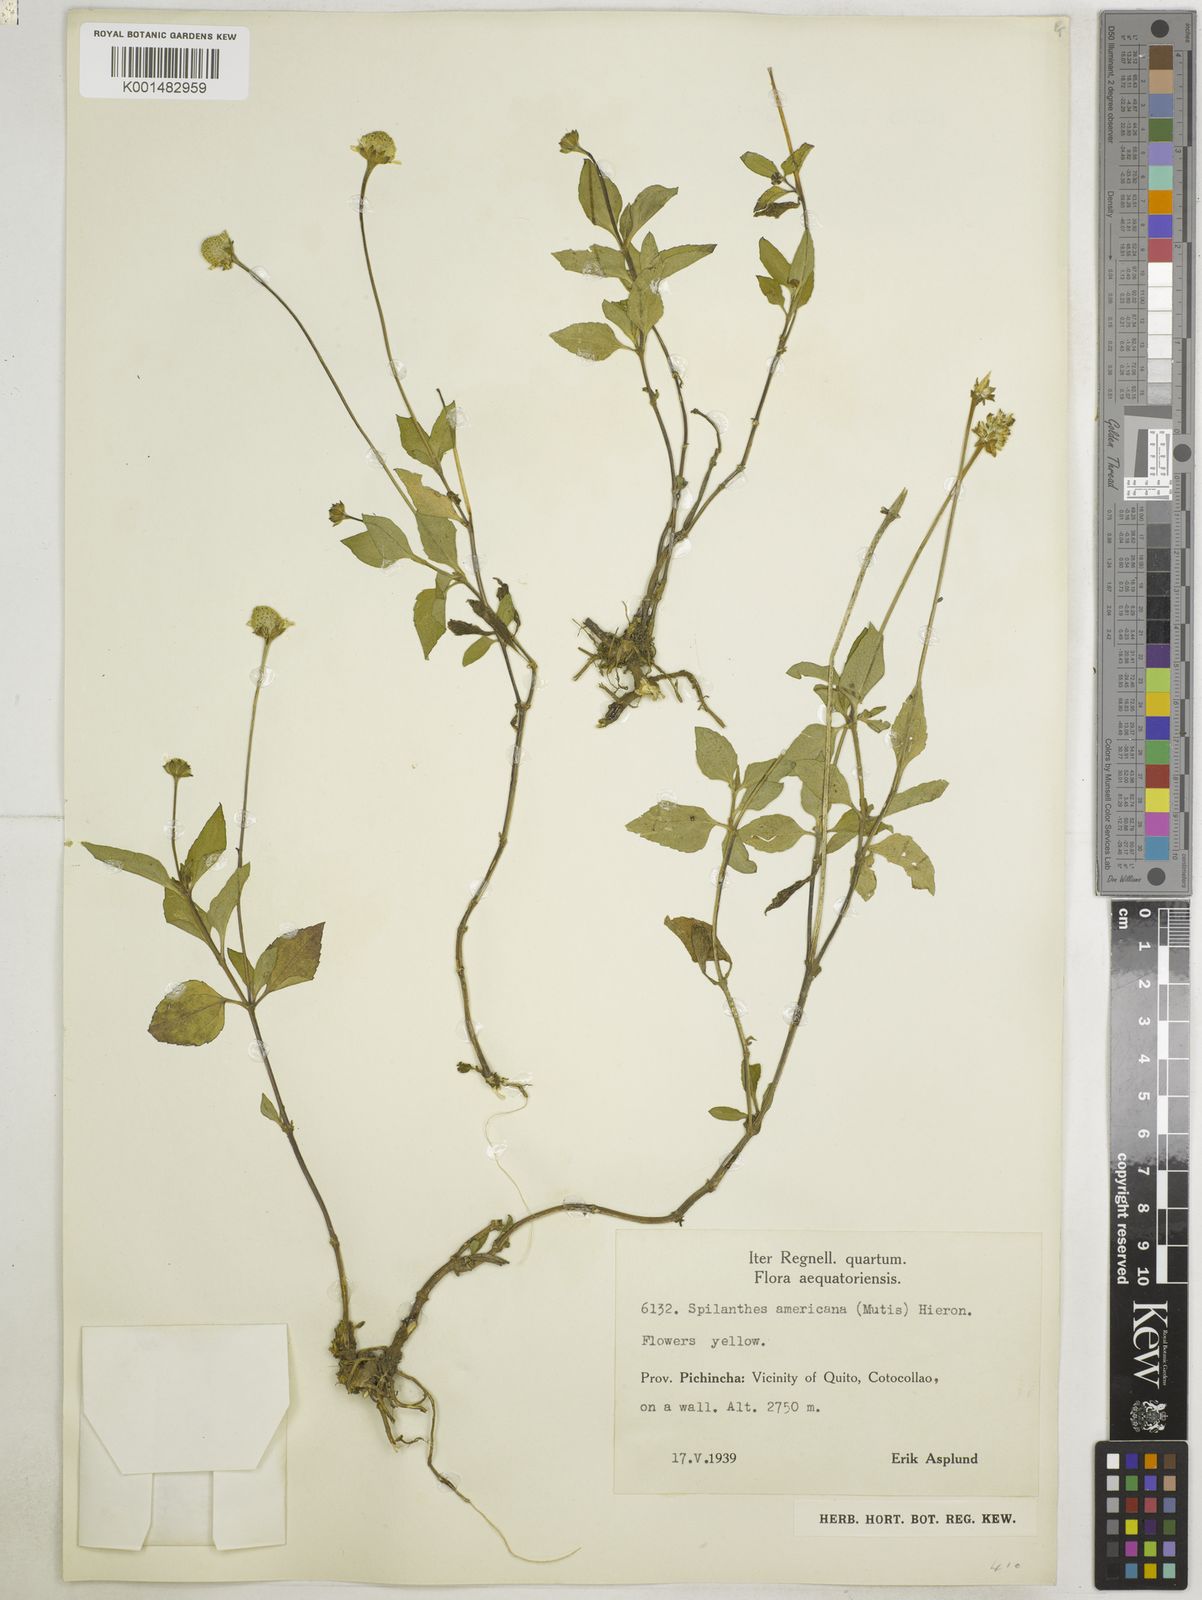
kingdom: Plantae
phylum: Tracheophyta
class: Magnoliopsida
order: Asterales
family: Asteraceae
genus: Heliopsis
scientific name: Heliopsis buphthalmoides
